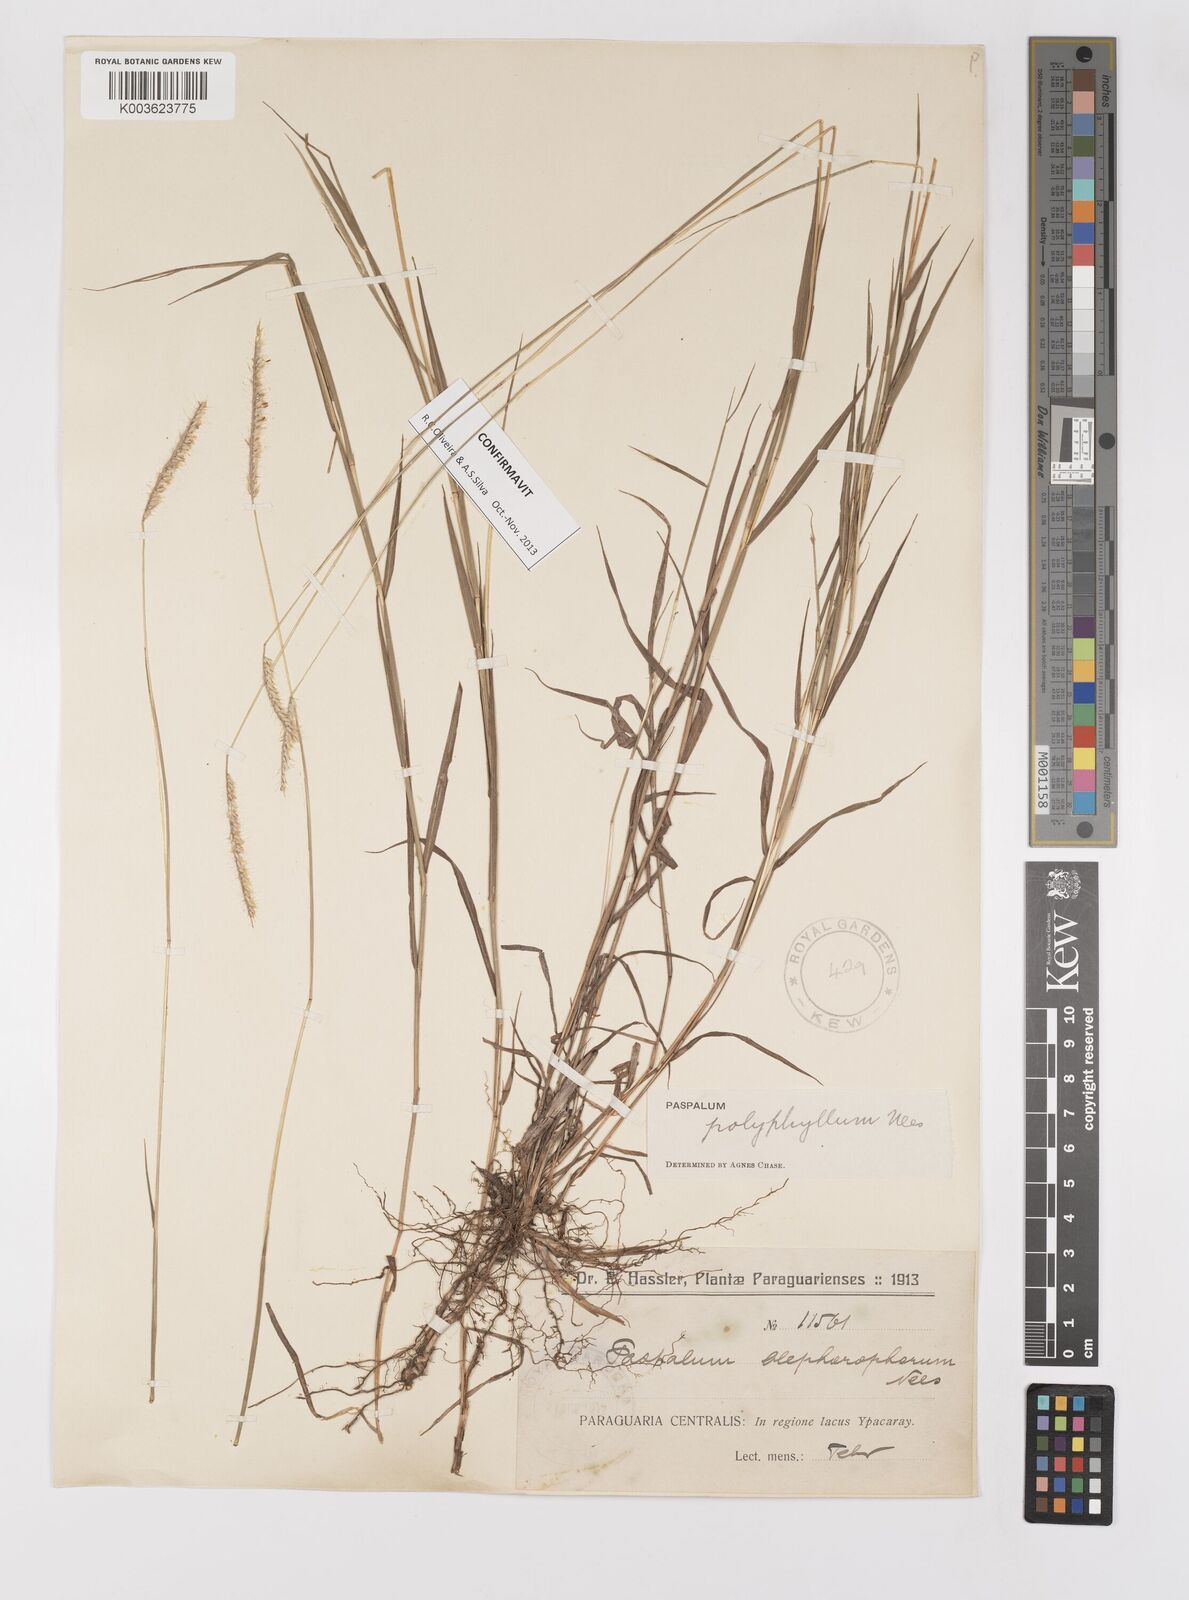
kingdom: Plantae
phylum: Tracheophyta
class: Liliopsida
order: Poales
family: Poaceae
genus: Paspalum
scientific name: Paspalum polyphyllum
